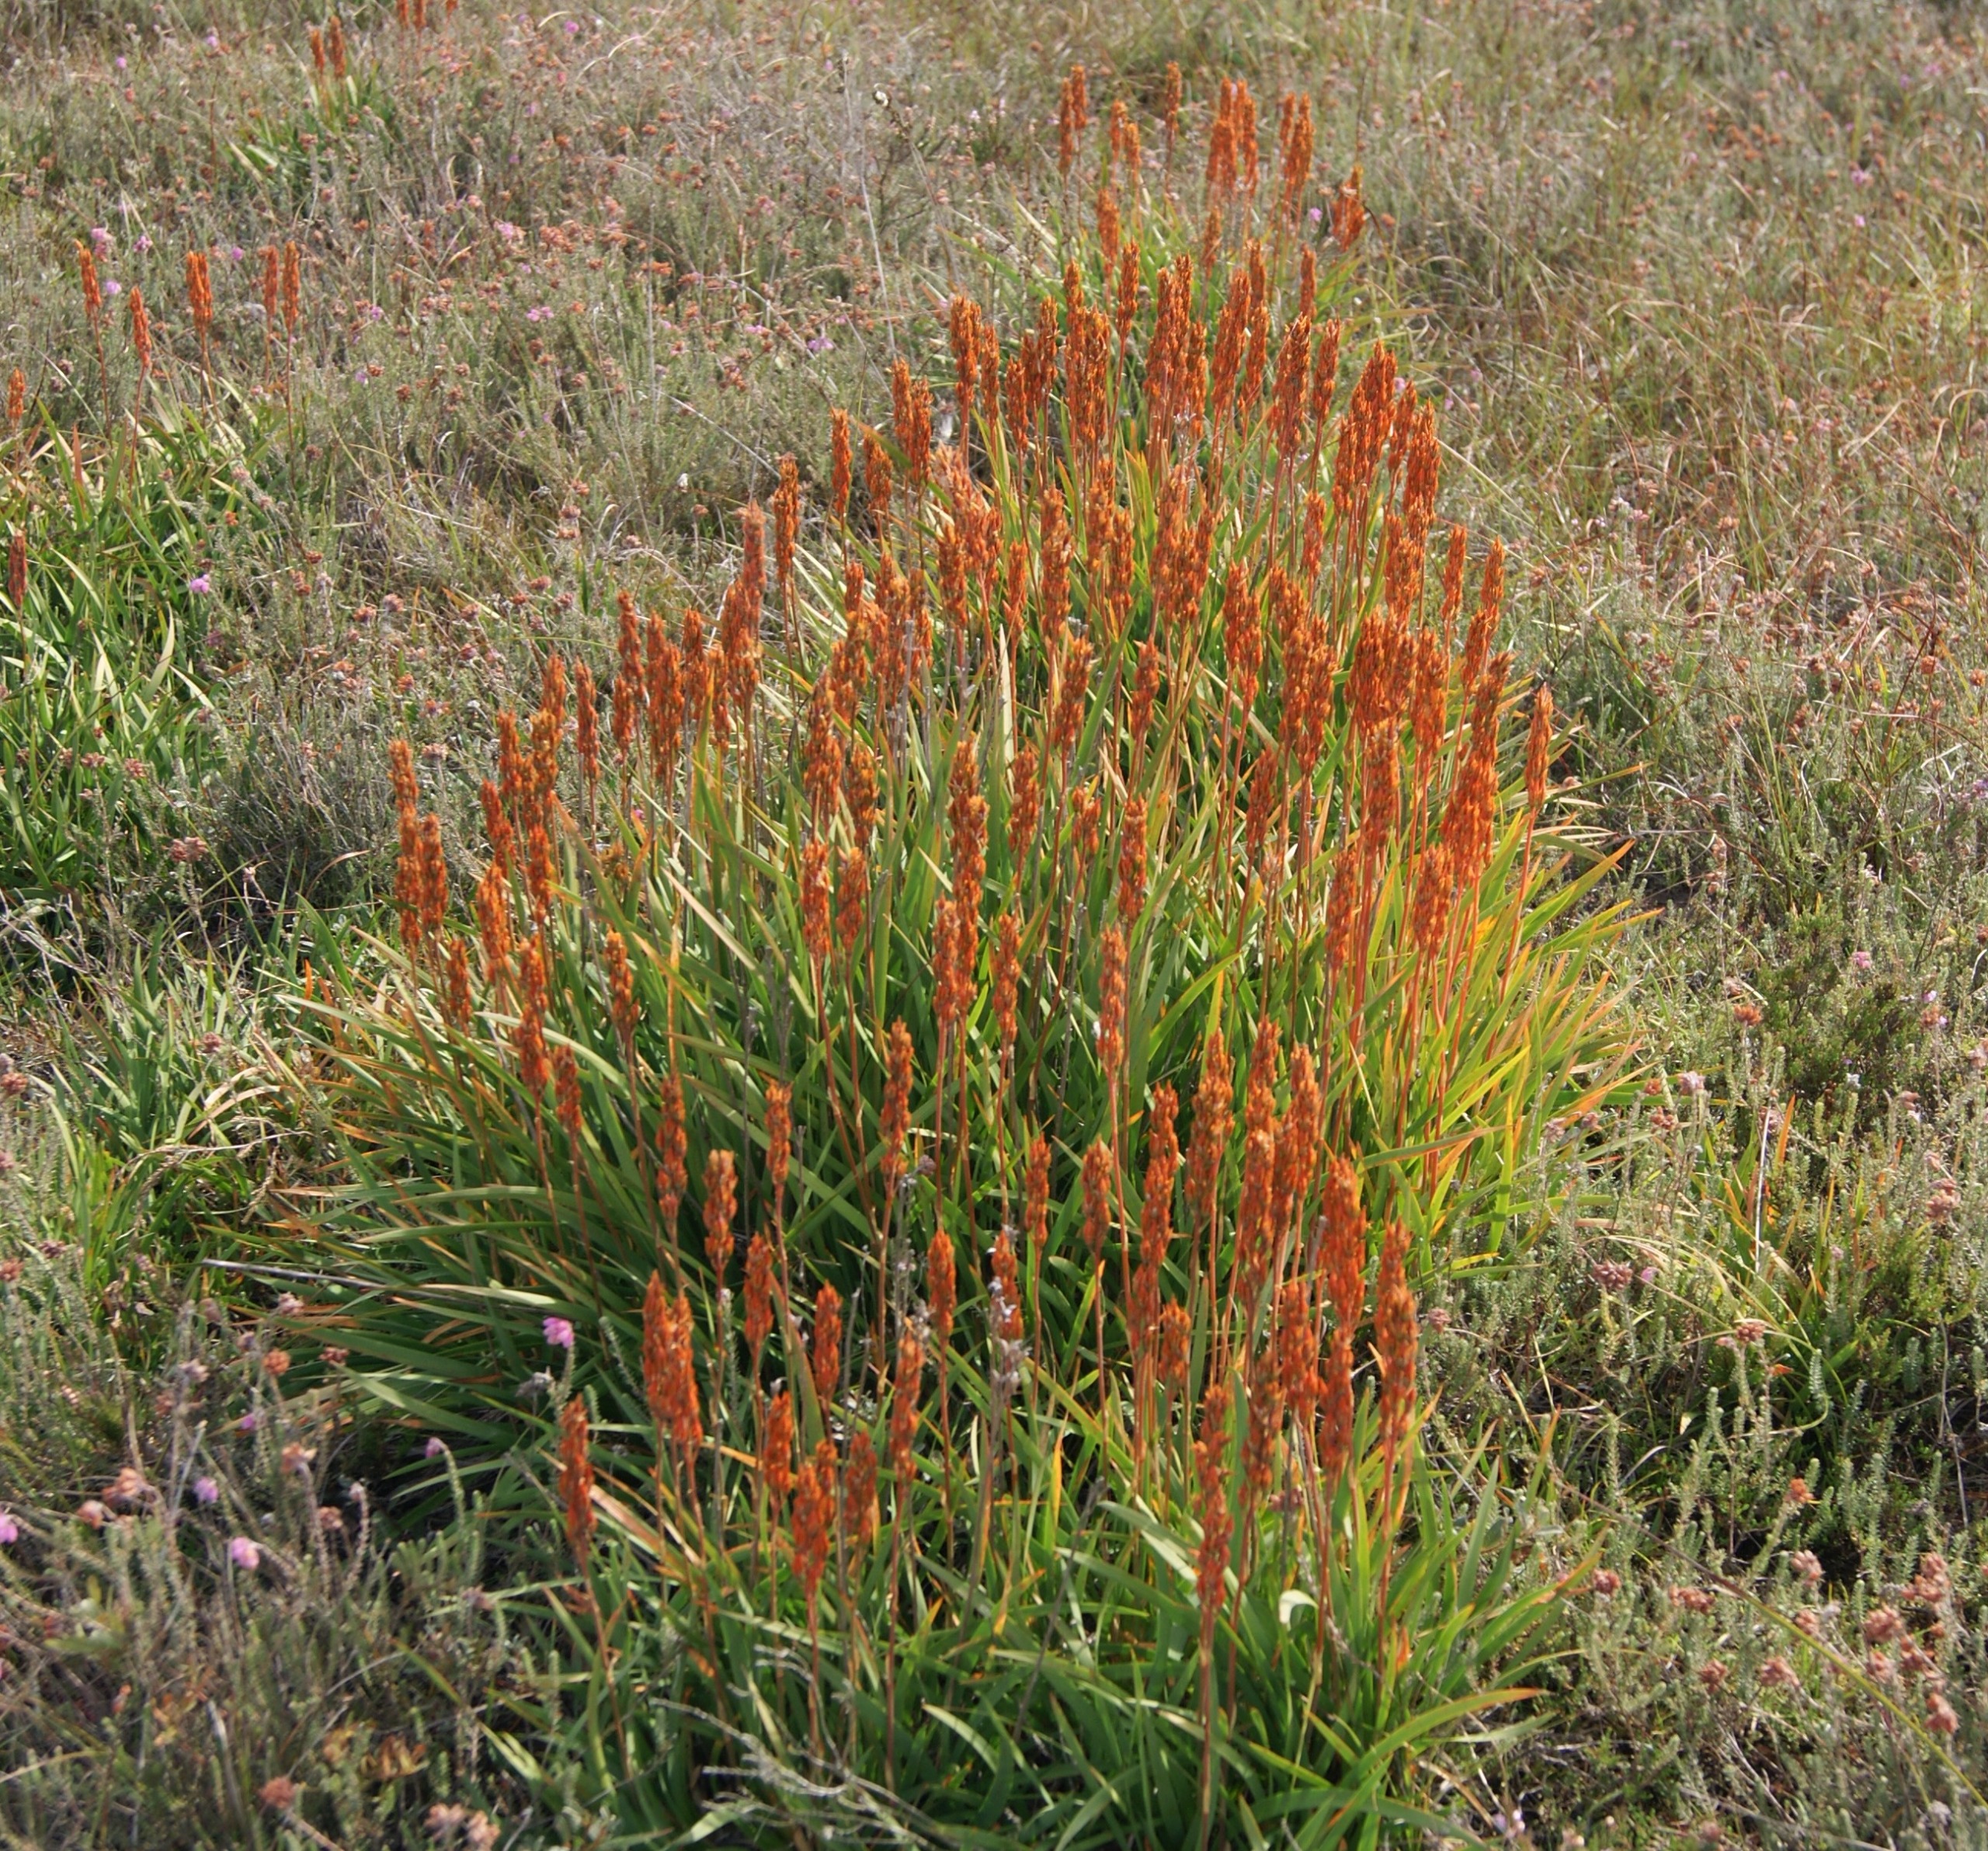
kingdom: Plantae
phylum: Tracheophyta
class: Liliopsida
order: Dioscoreales
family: Nartheciaceae
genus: Narthecium
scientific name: Narthecium ossifragum
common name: Benbræk
